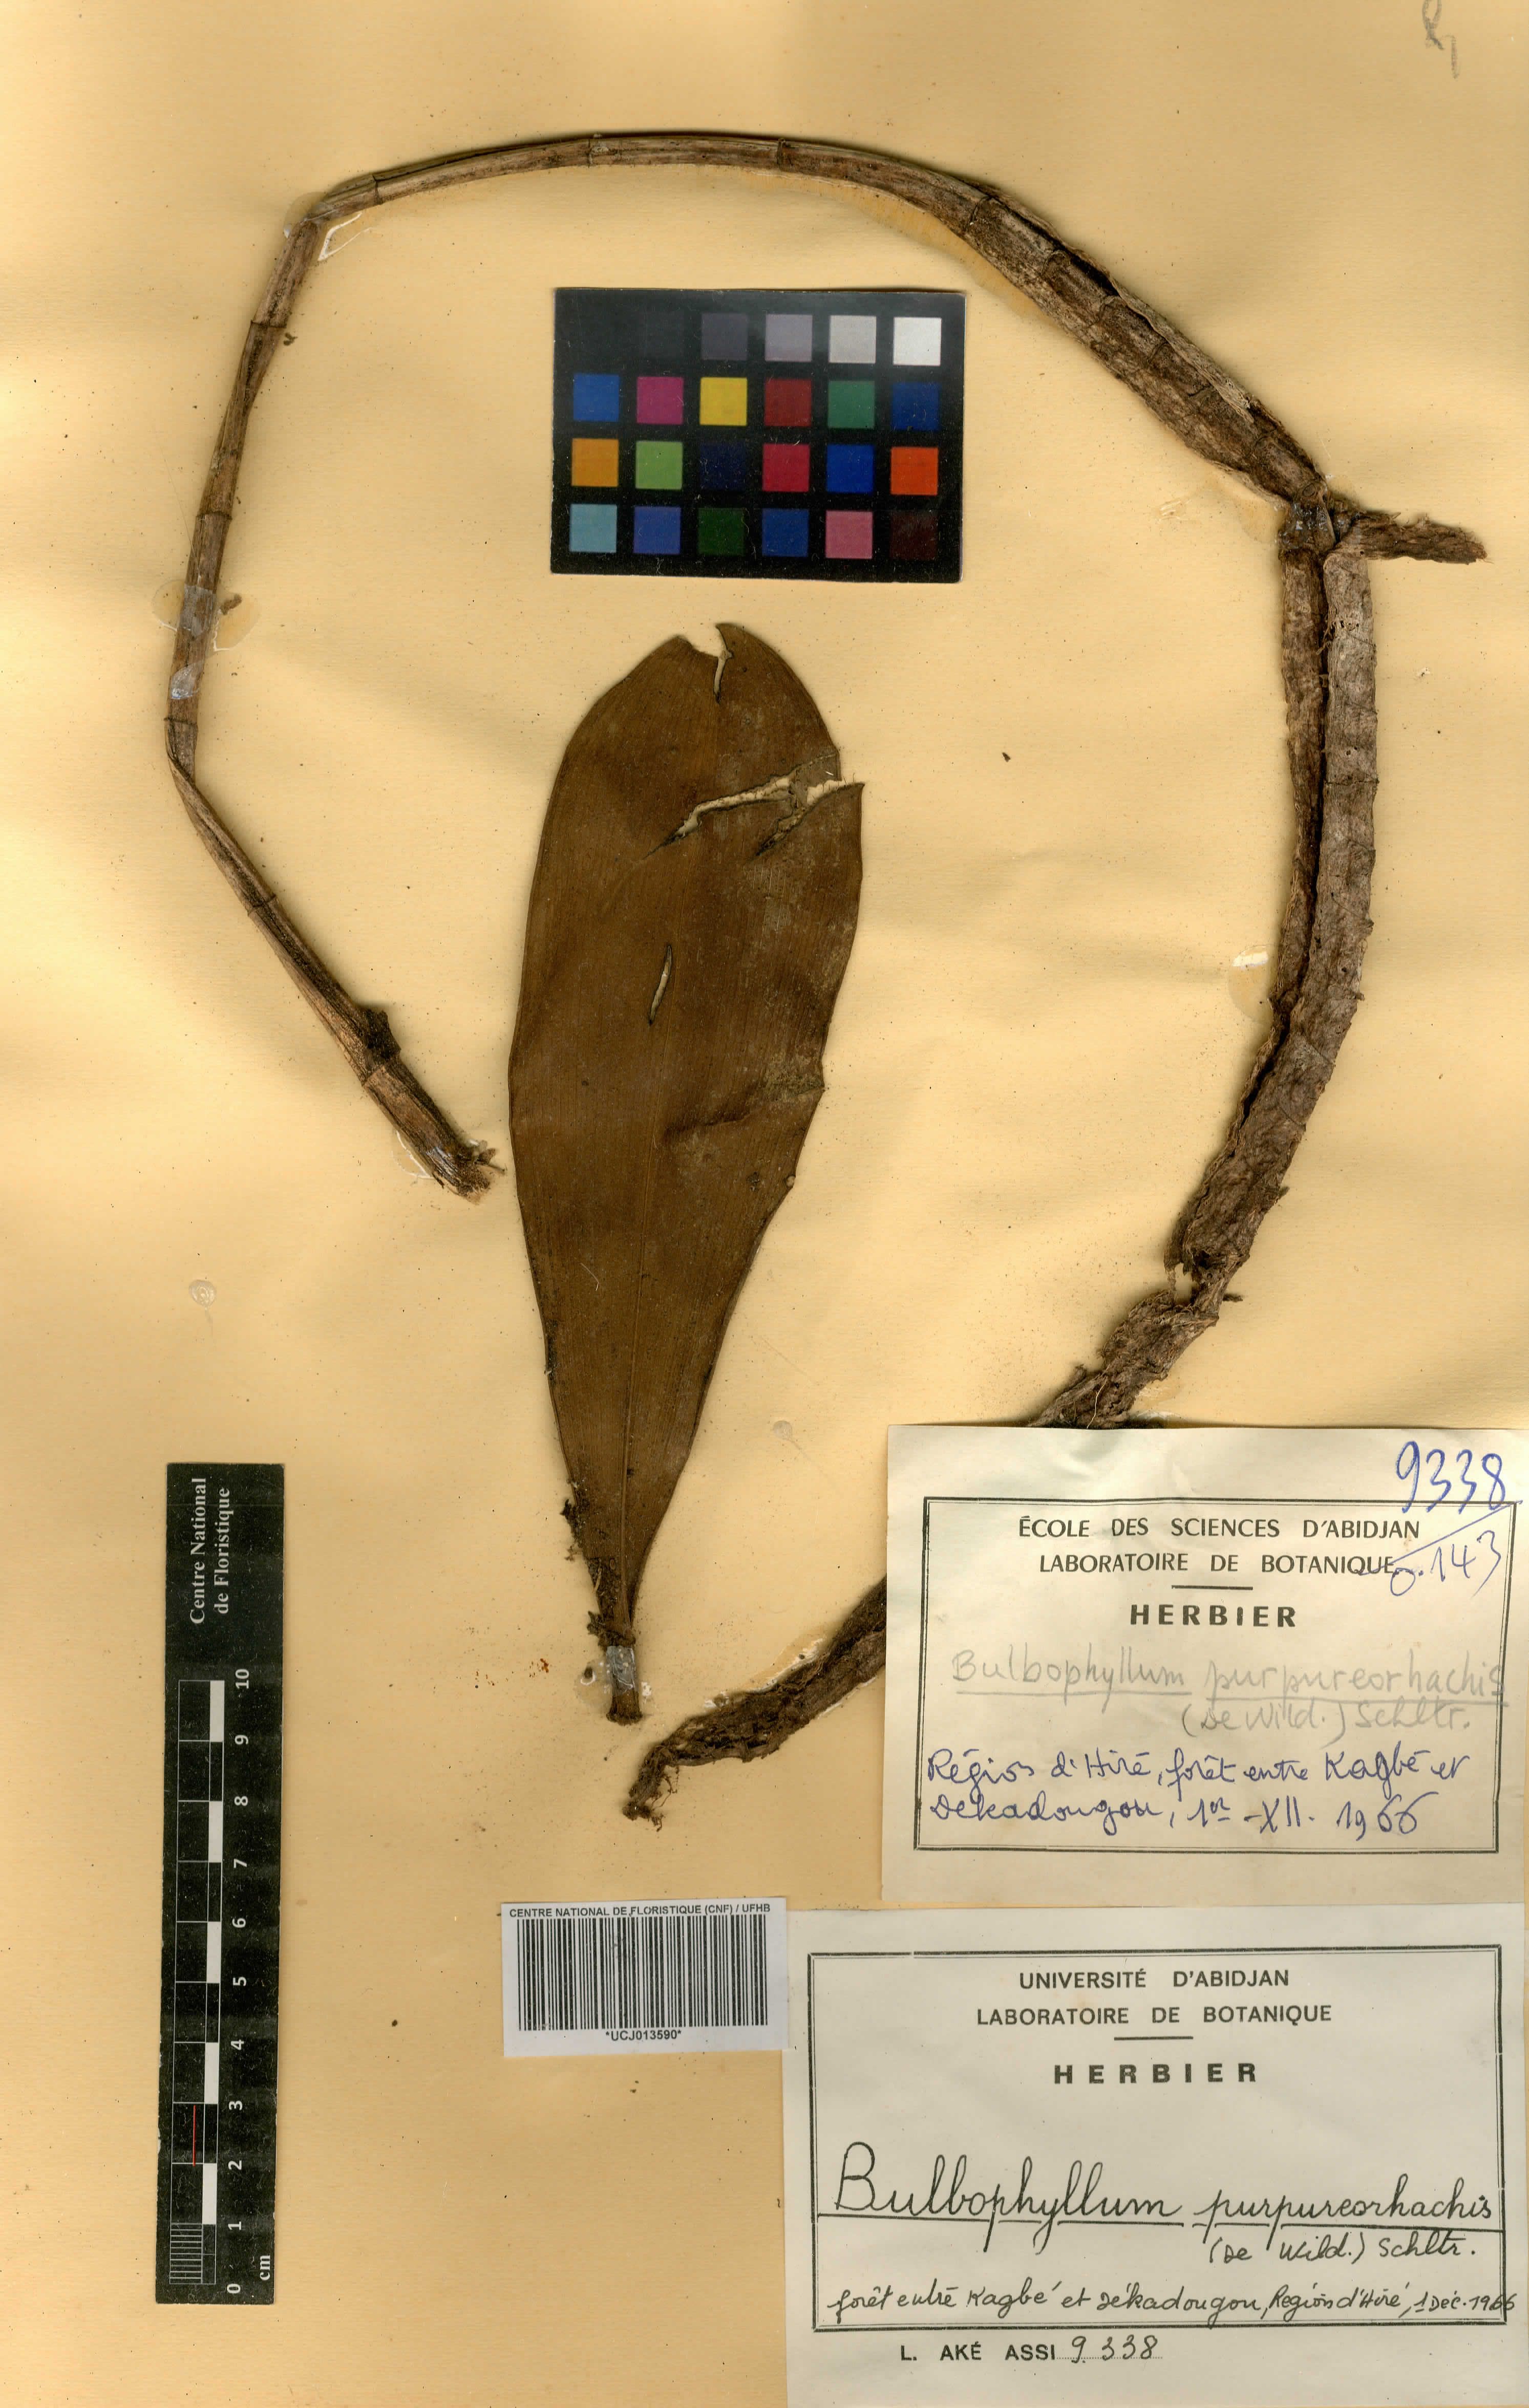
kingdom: Plantae
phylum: Tracheophyta
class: Liliopsida
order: Asparagales
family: Orchidaceae
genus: Bulbophyllum
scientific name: Bulbophyllum purpureorhachis
